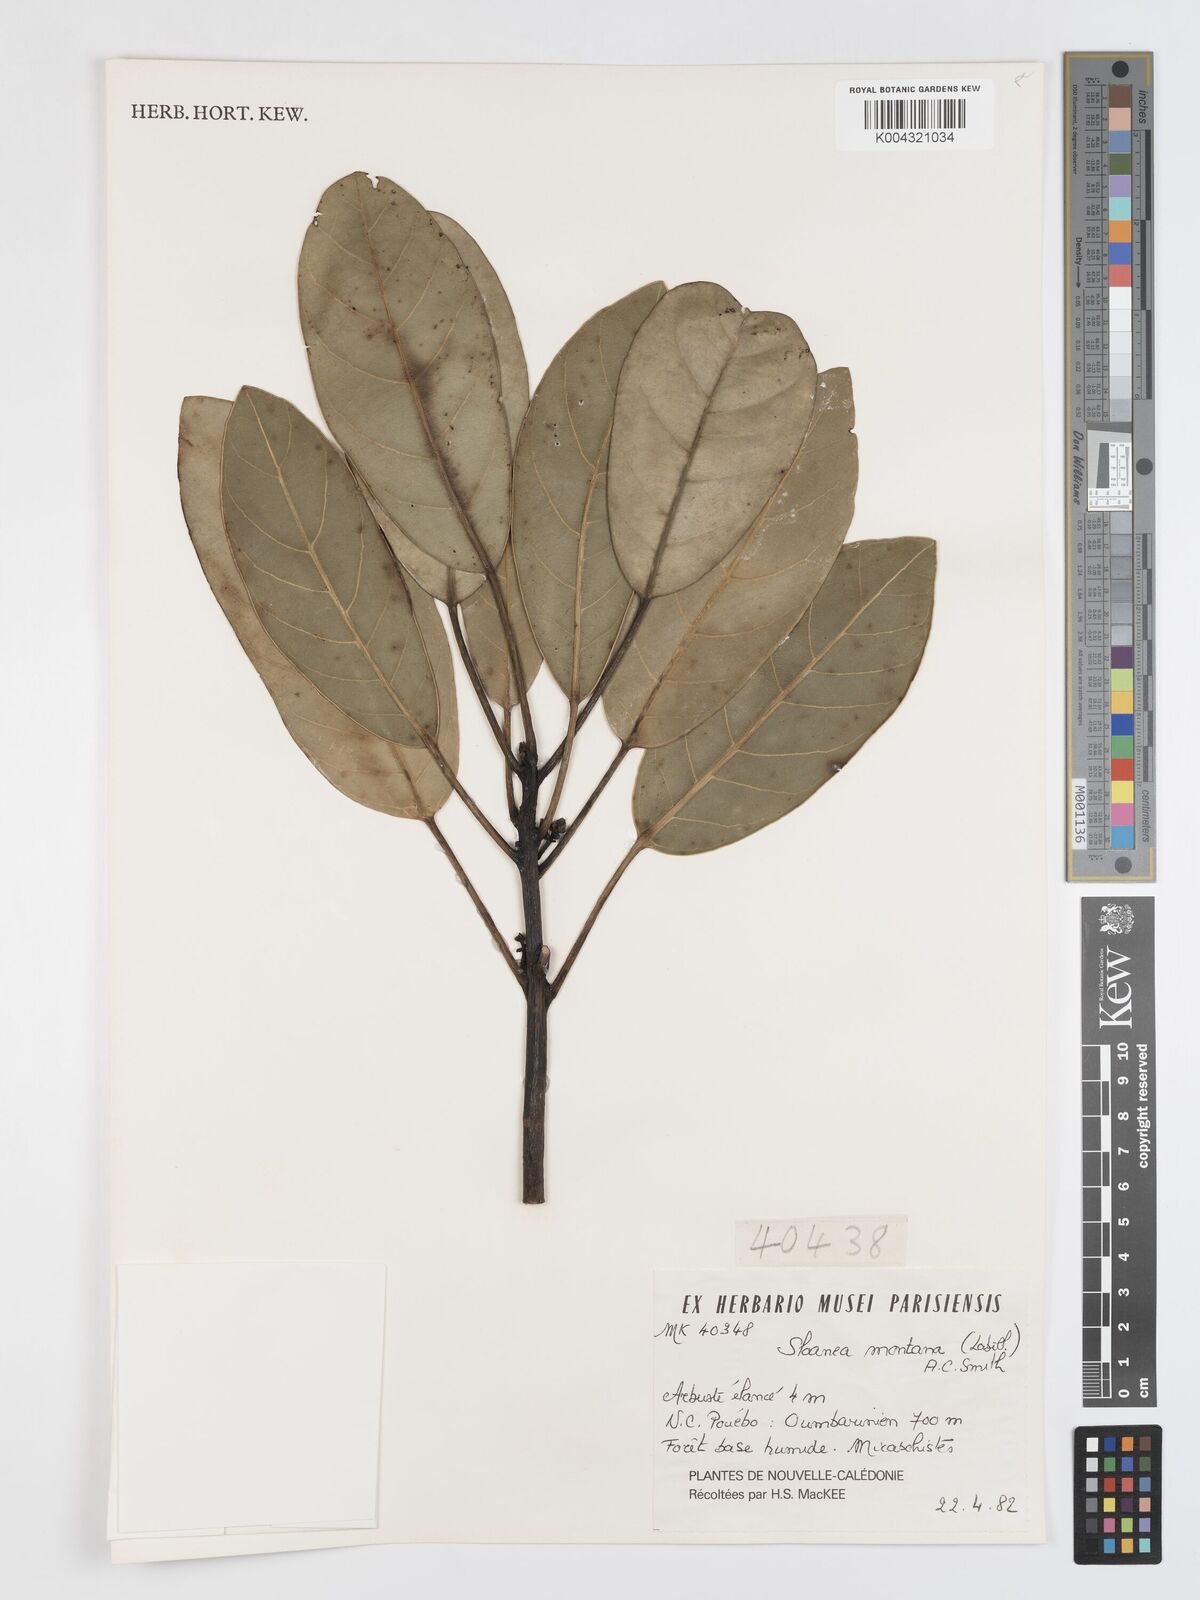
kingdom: Plantae
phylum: Tracheophyta
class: Magnoliopsida
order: Oxalidales
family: Elaeocarpaceae
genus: Sloanea
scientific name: Sloanea montana
